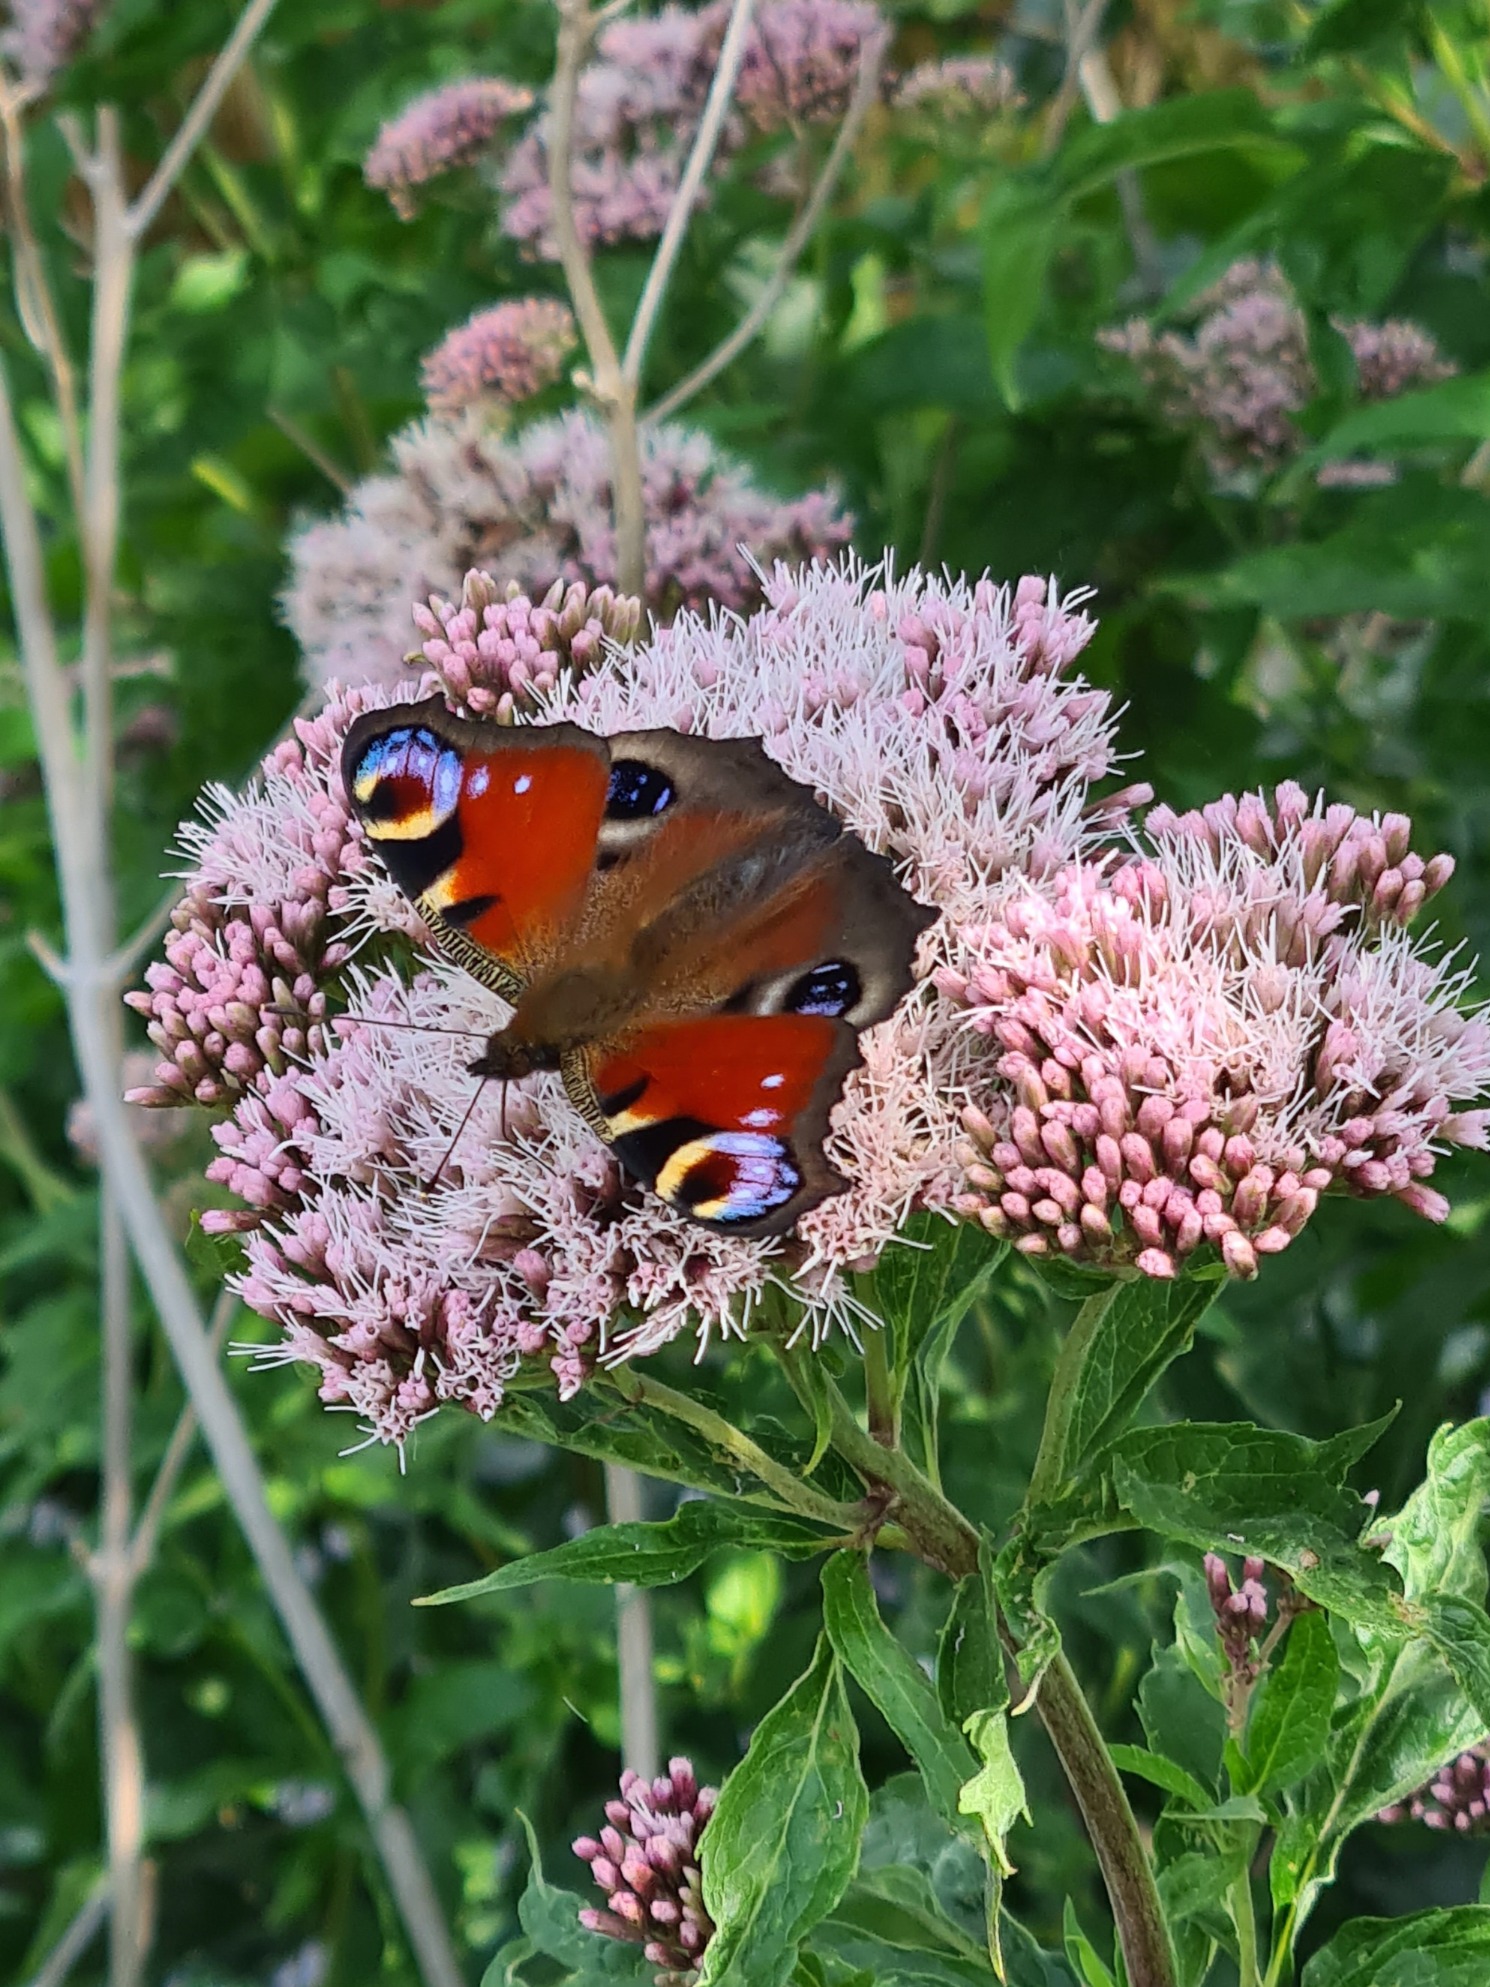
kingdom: Animalia
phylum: Arthropoda
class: Insecta
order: Lepidoptera
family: Nymphalidae
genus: Aglais
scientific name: Aglais io
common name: Dagpåfugleøje
